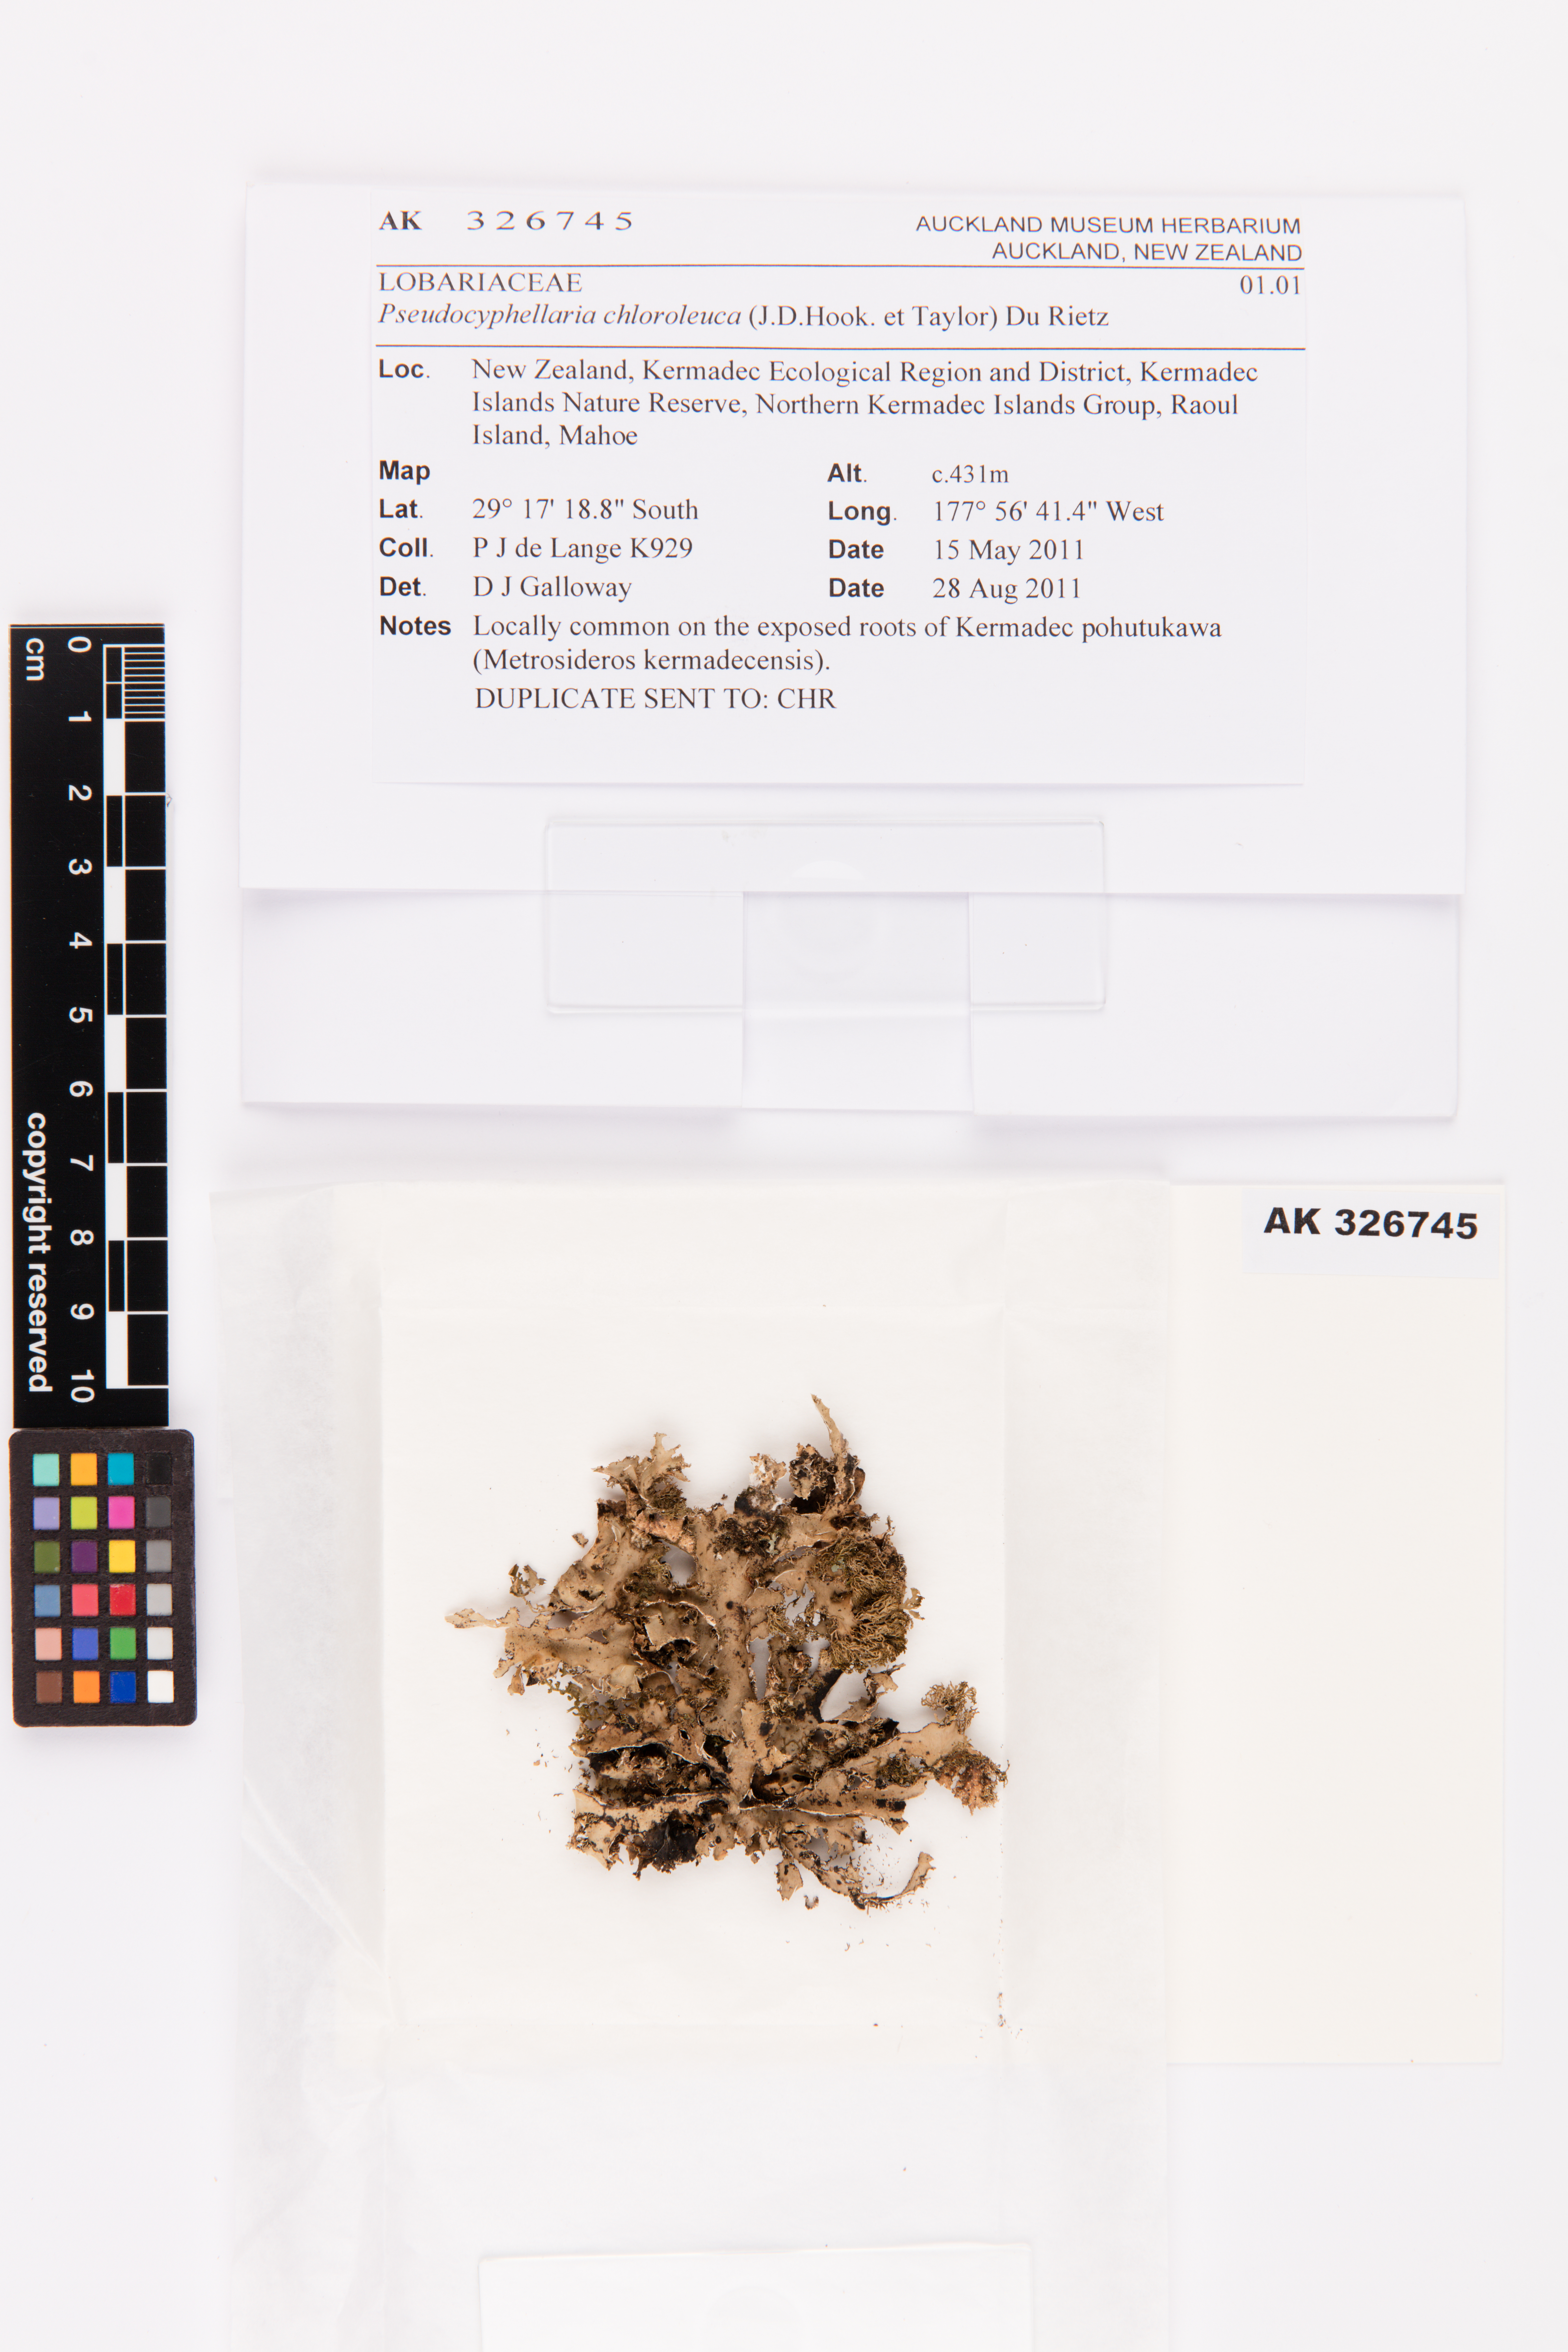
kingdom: Fungi
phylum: Ascomycota
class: Lecanoromycetes
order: Peltigerales
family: Lobariaceae
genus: Pseudocyphellaria
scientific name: Pseudocyphellaria chloroleuca
